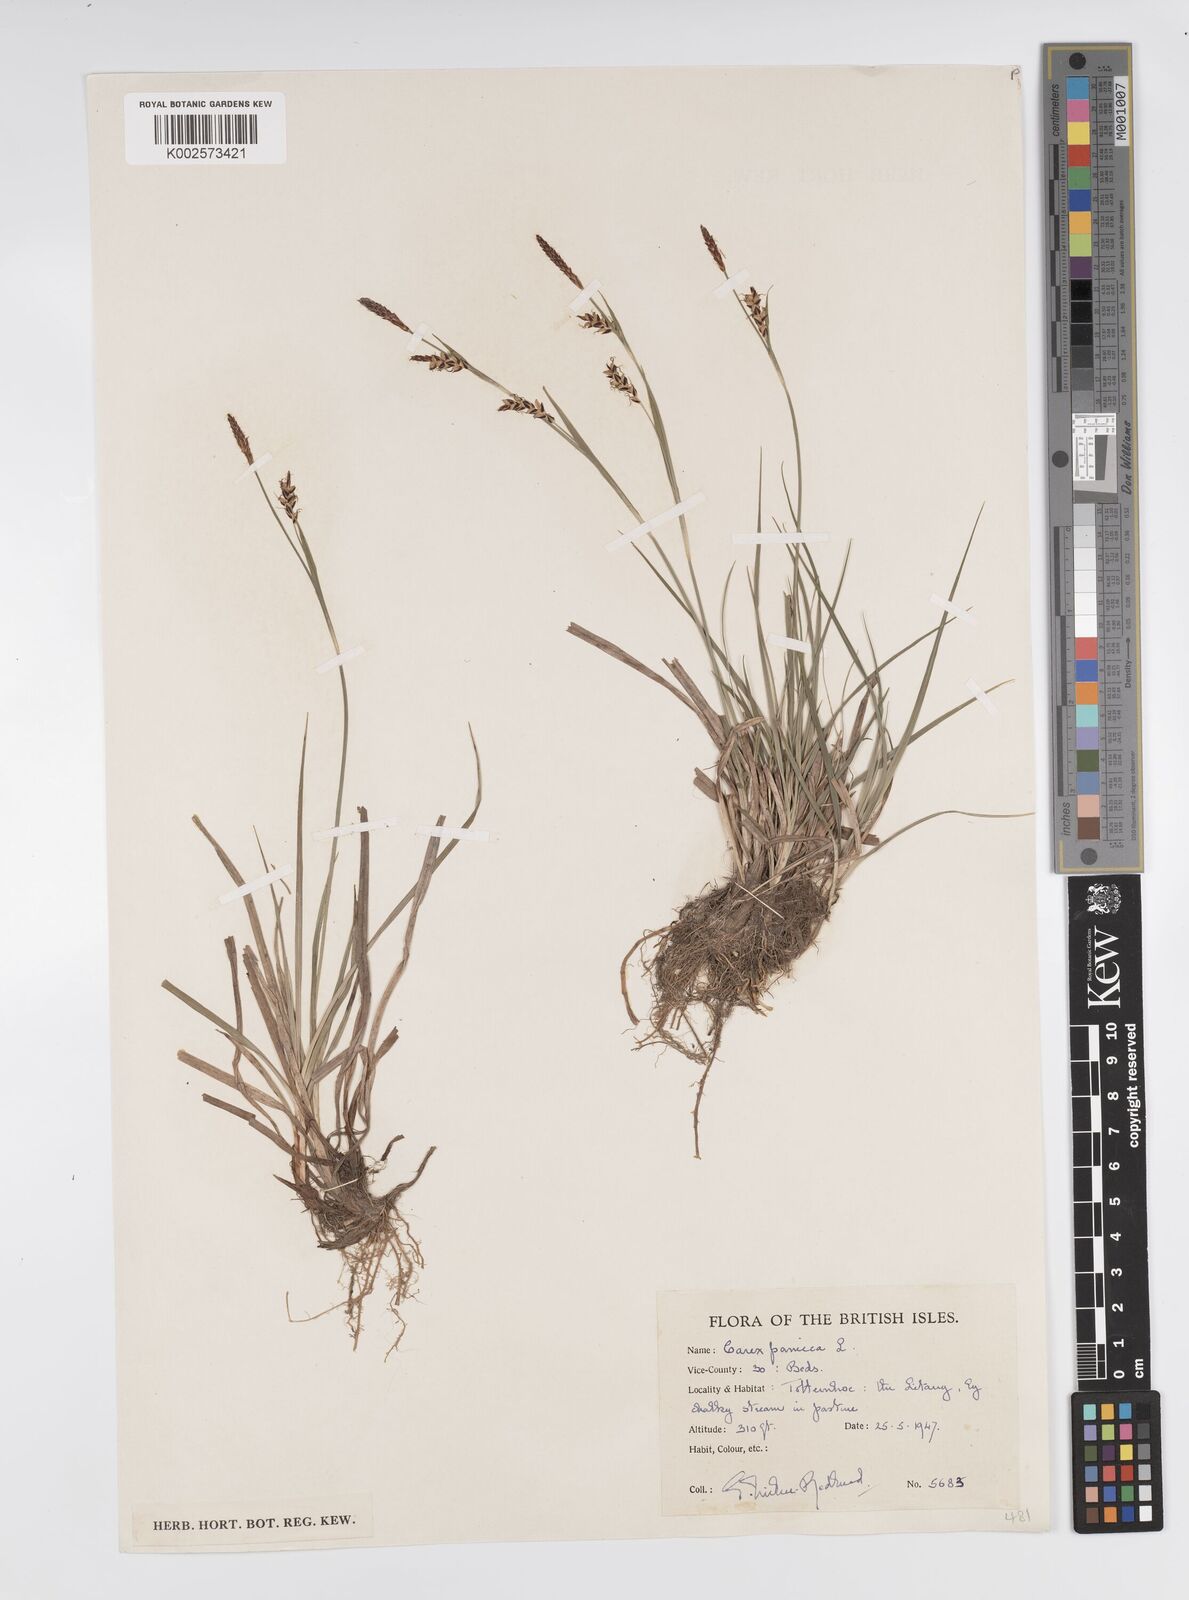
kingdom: Plantae
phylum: Tracheophyta
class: Liliopsida
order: Poales
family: Cyperaceae
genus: Carex
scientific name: Carex panicea
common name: Carnation sedge
